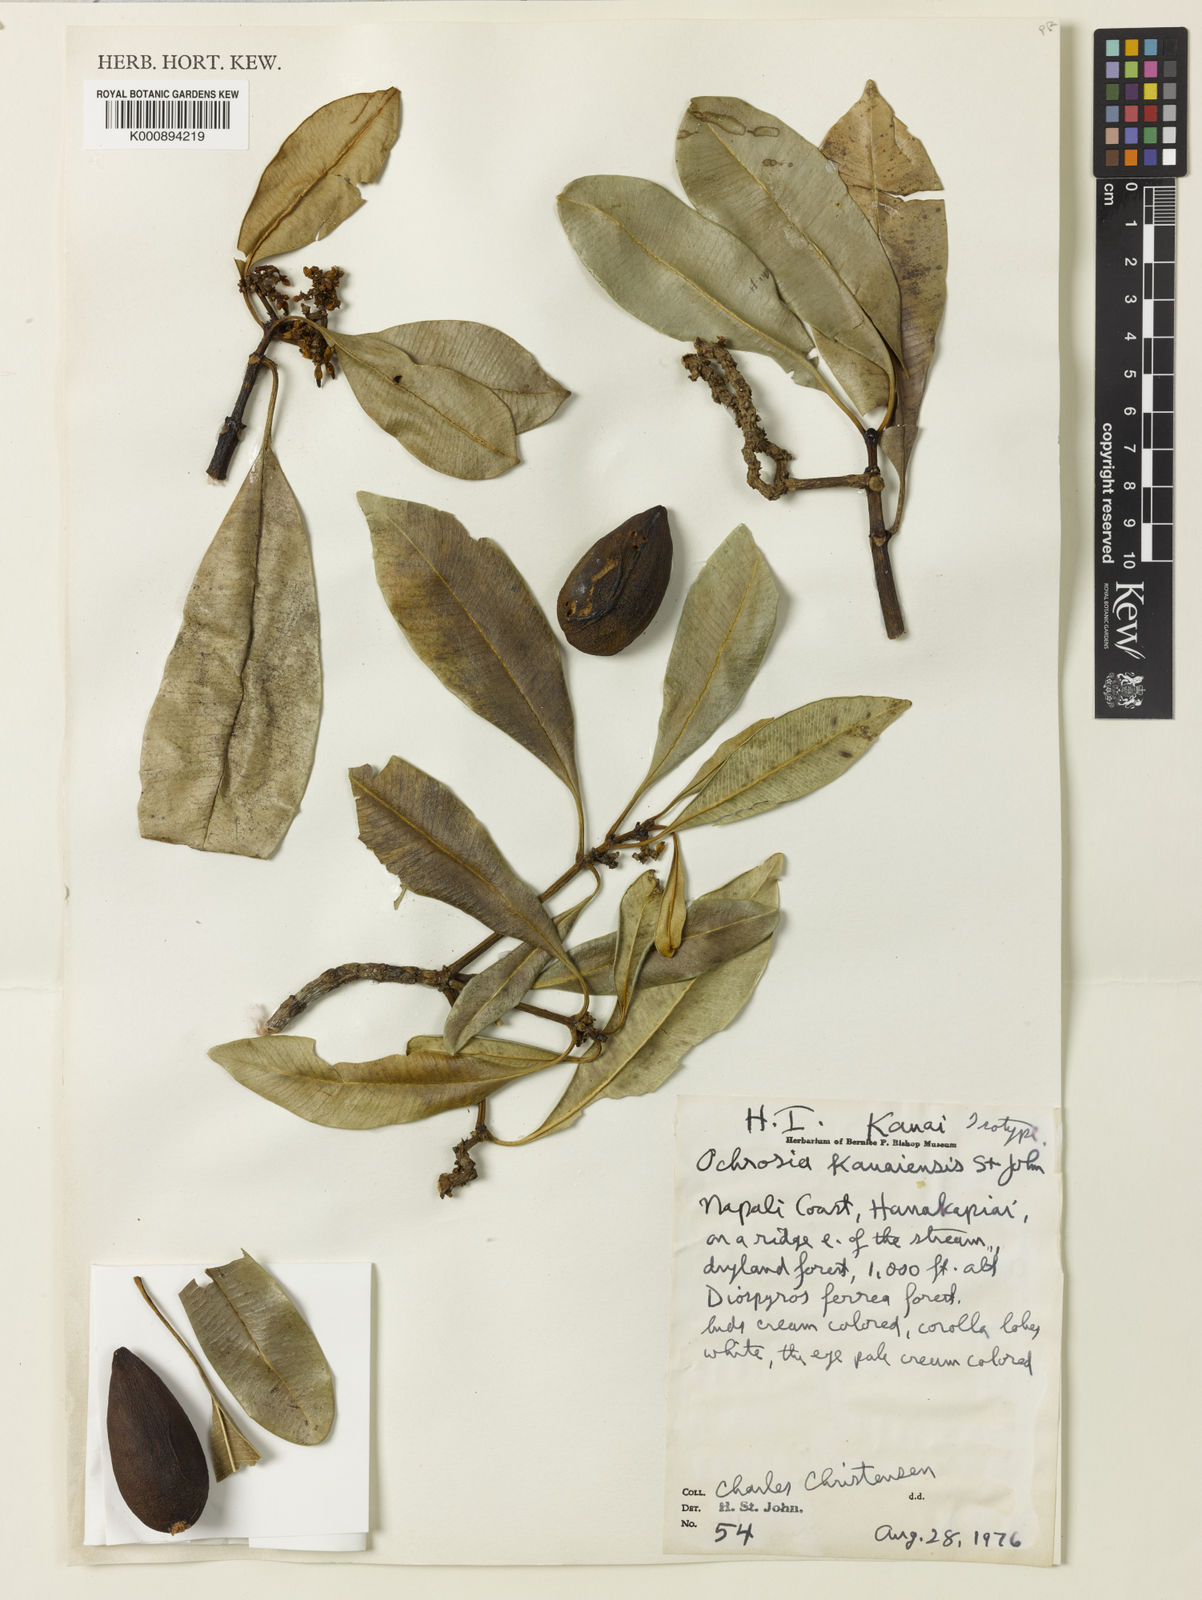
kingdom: Plantae
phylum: Tracheophyta
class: Magnoliopsida
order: Gentianales
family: Apocynaceae
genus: Ochrosia
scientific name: Ochrosia kauaiensis
